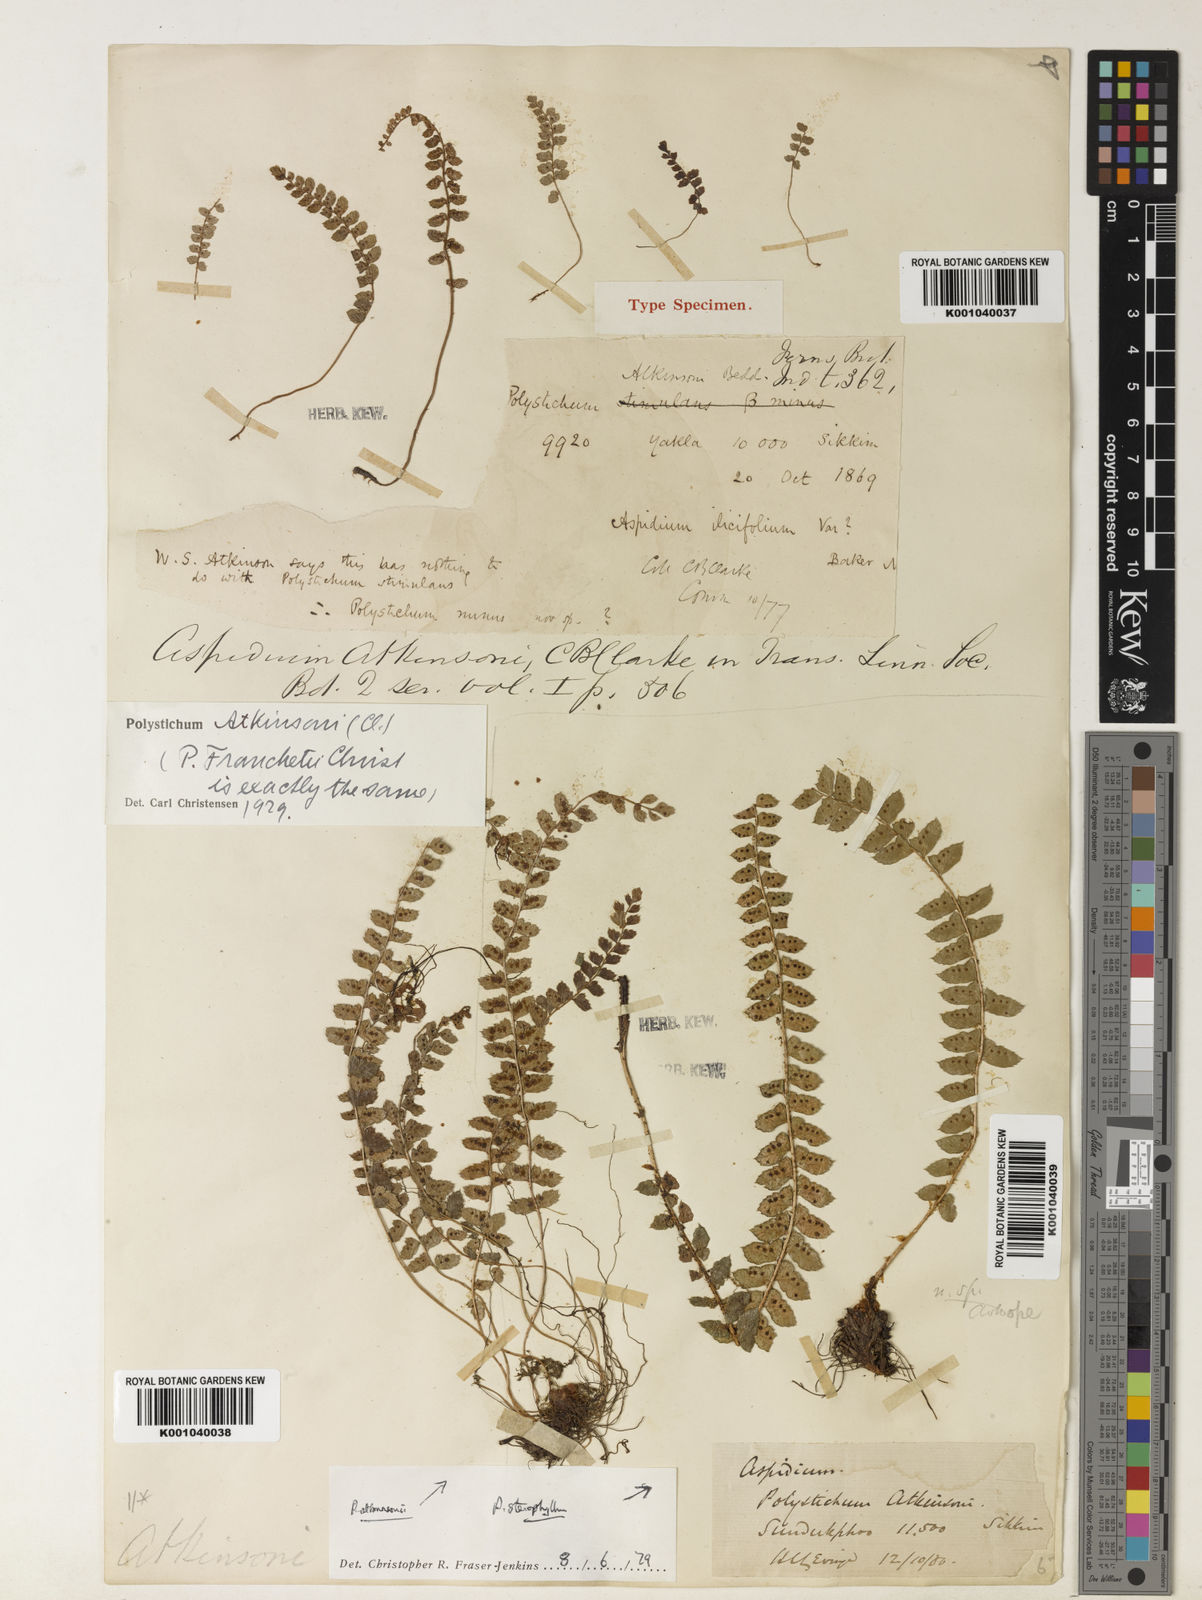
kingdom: Plantae
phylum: Tracheophyta
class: Polypodiopsida
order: Polypodiales
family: Dryopteridaceae
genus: Polystichum
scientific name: Polystichum atkinsonii
